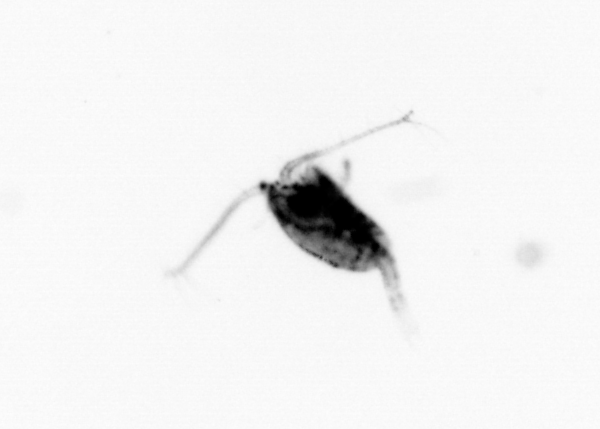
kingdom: Animalia
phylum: Arthropoda
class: Copepoda
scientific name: Copepoda
